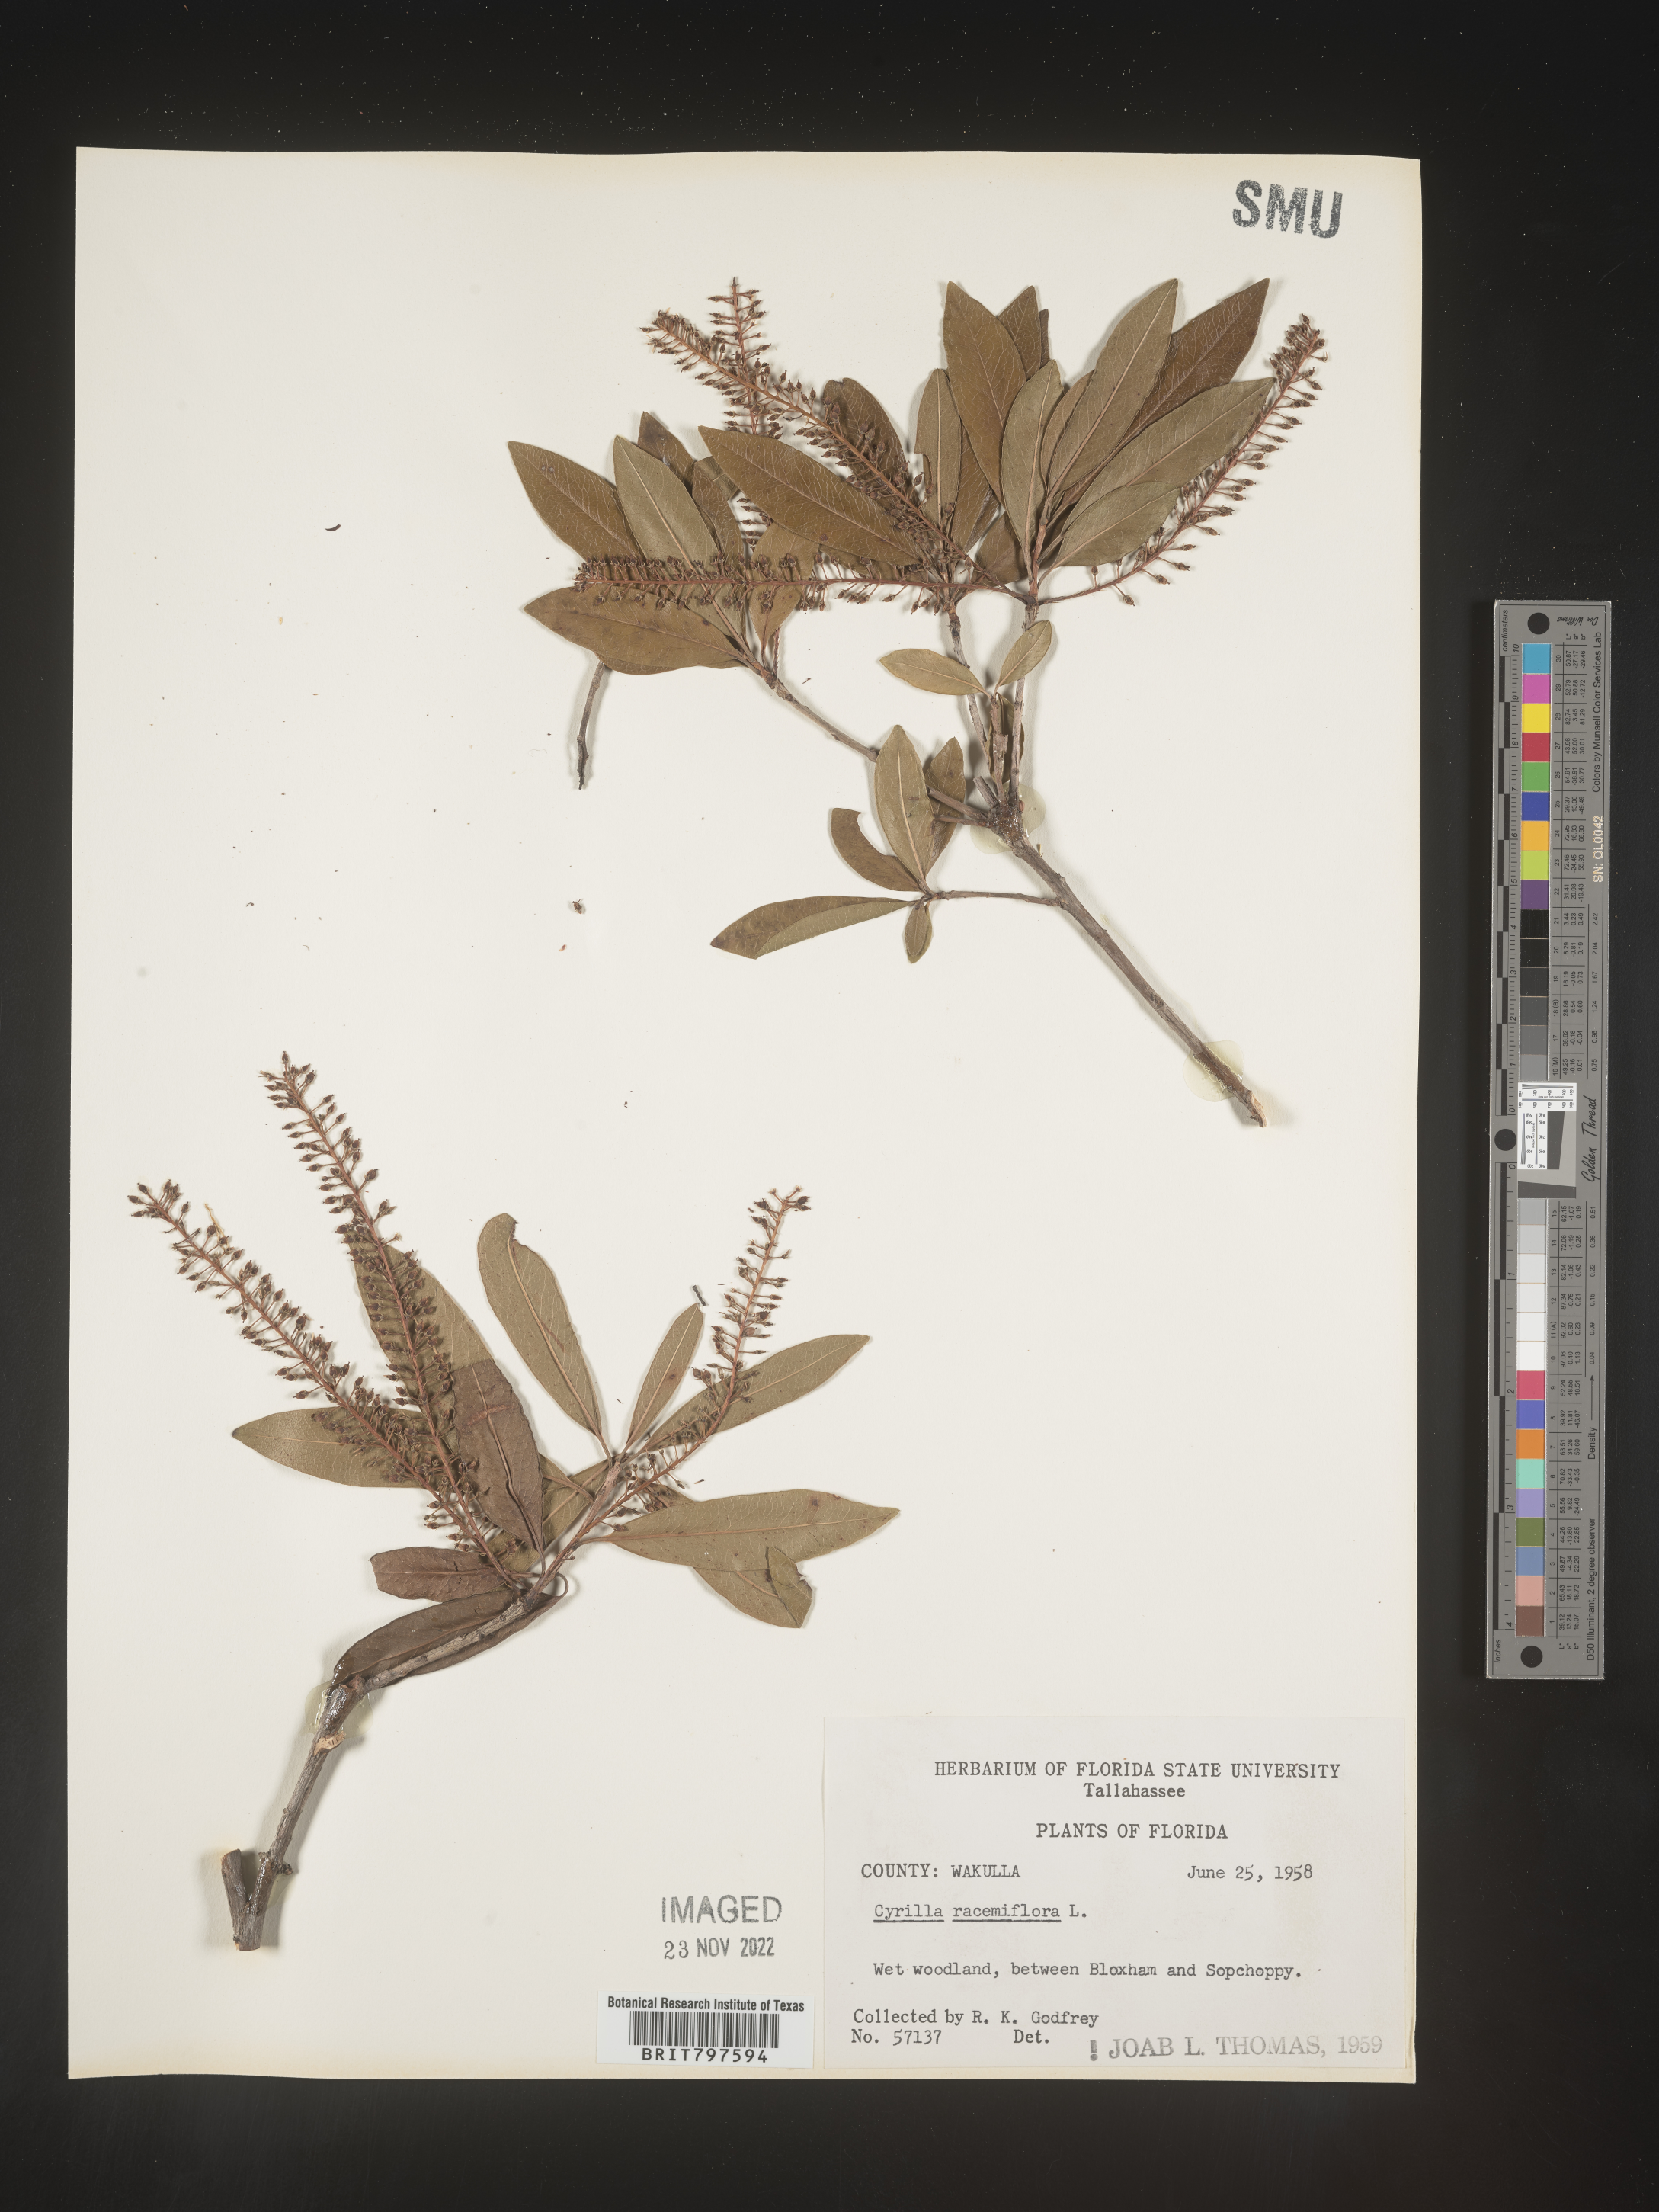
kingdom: Plantae
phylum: Tracheophyta
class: Magnoliopsida
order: Ericales
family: Cyrillaceae
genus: Cyrilla
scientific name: Cyrilla racemiflora
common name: Black titi
